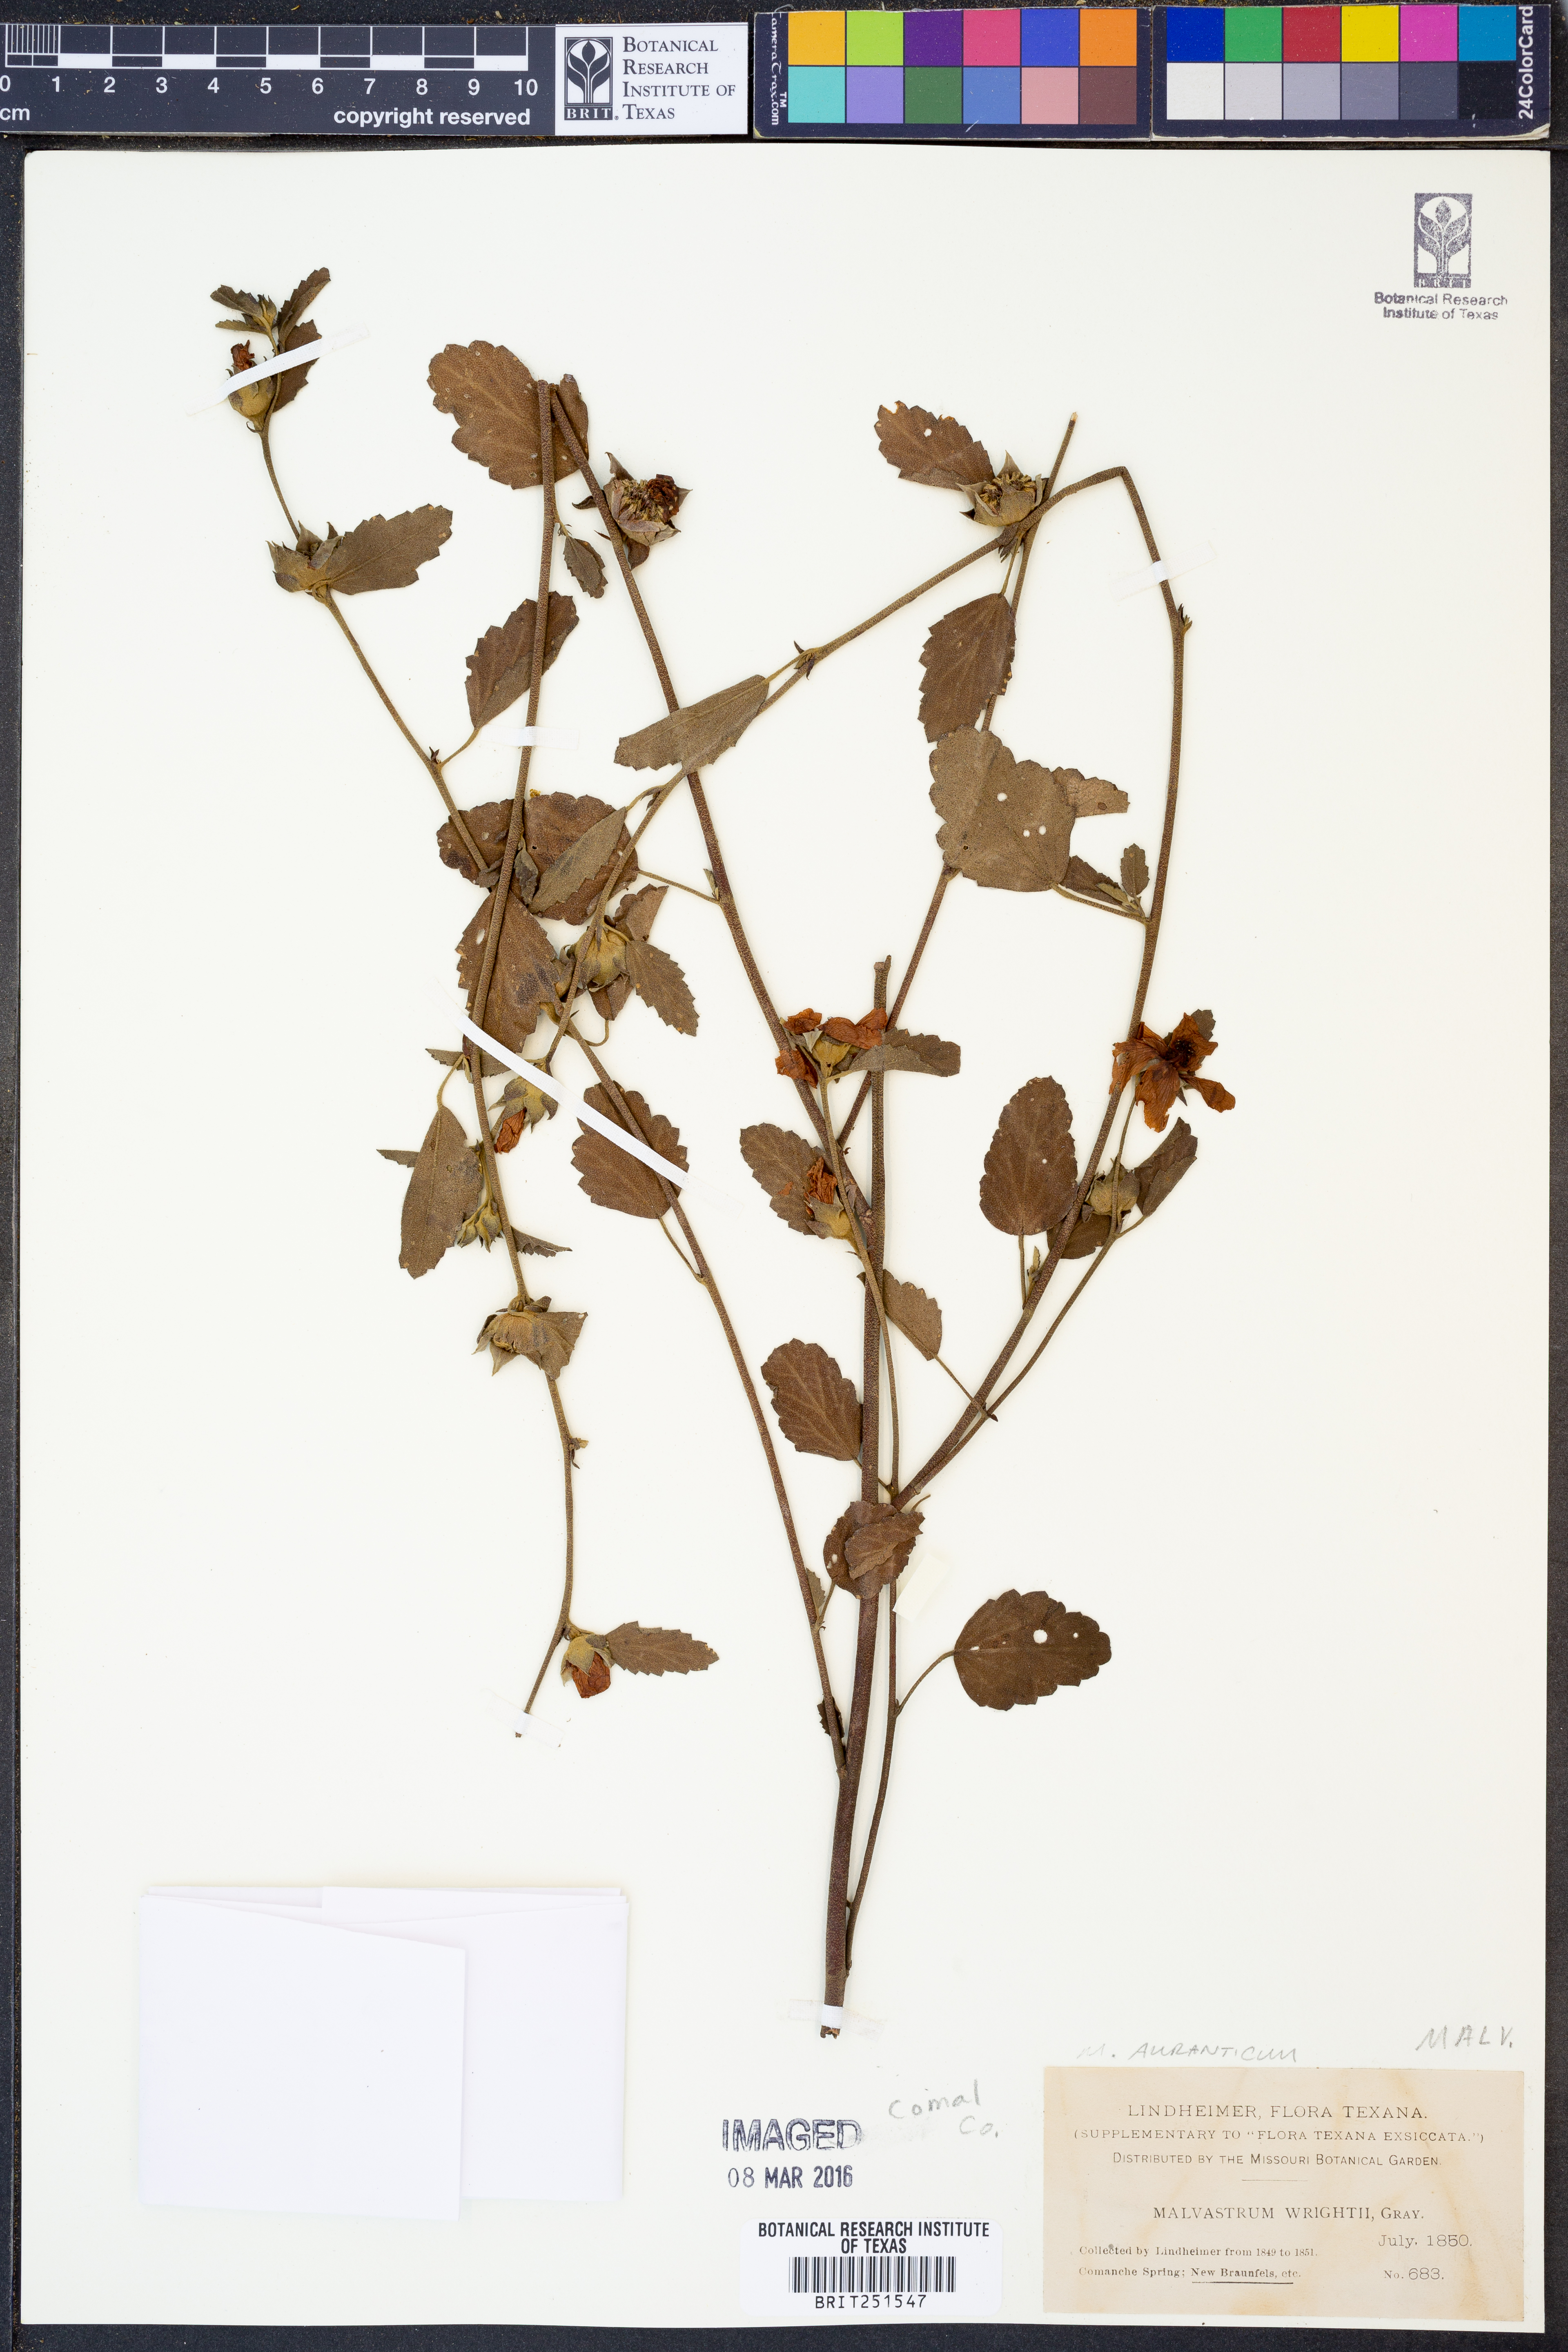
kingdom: Plantae
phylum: Tracheophyta
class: Magnoliopsida
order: Malvales
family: Malvaceae
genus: Malvastrum
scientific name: Malvastrum aurantiacum
